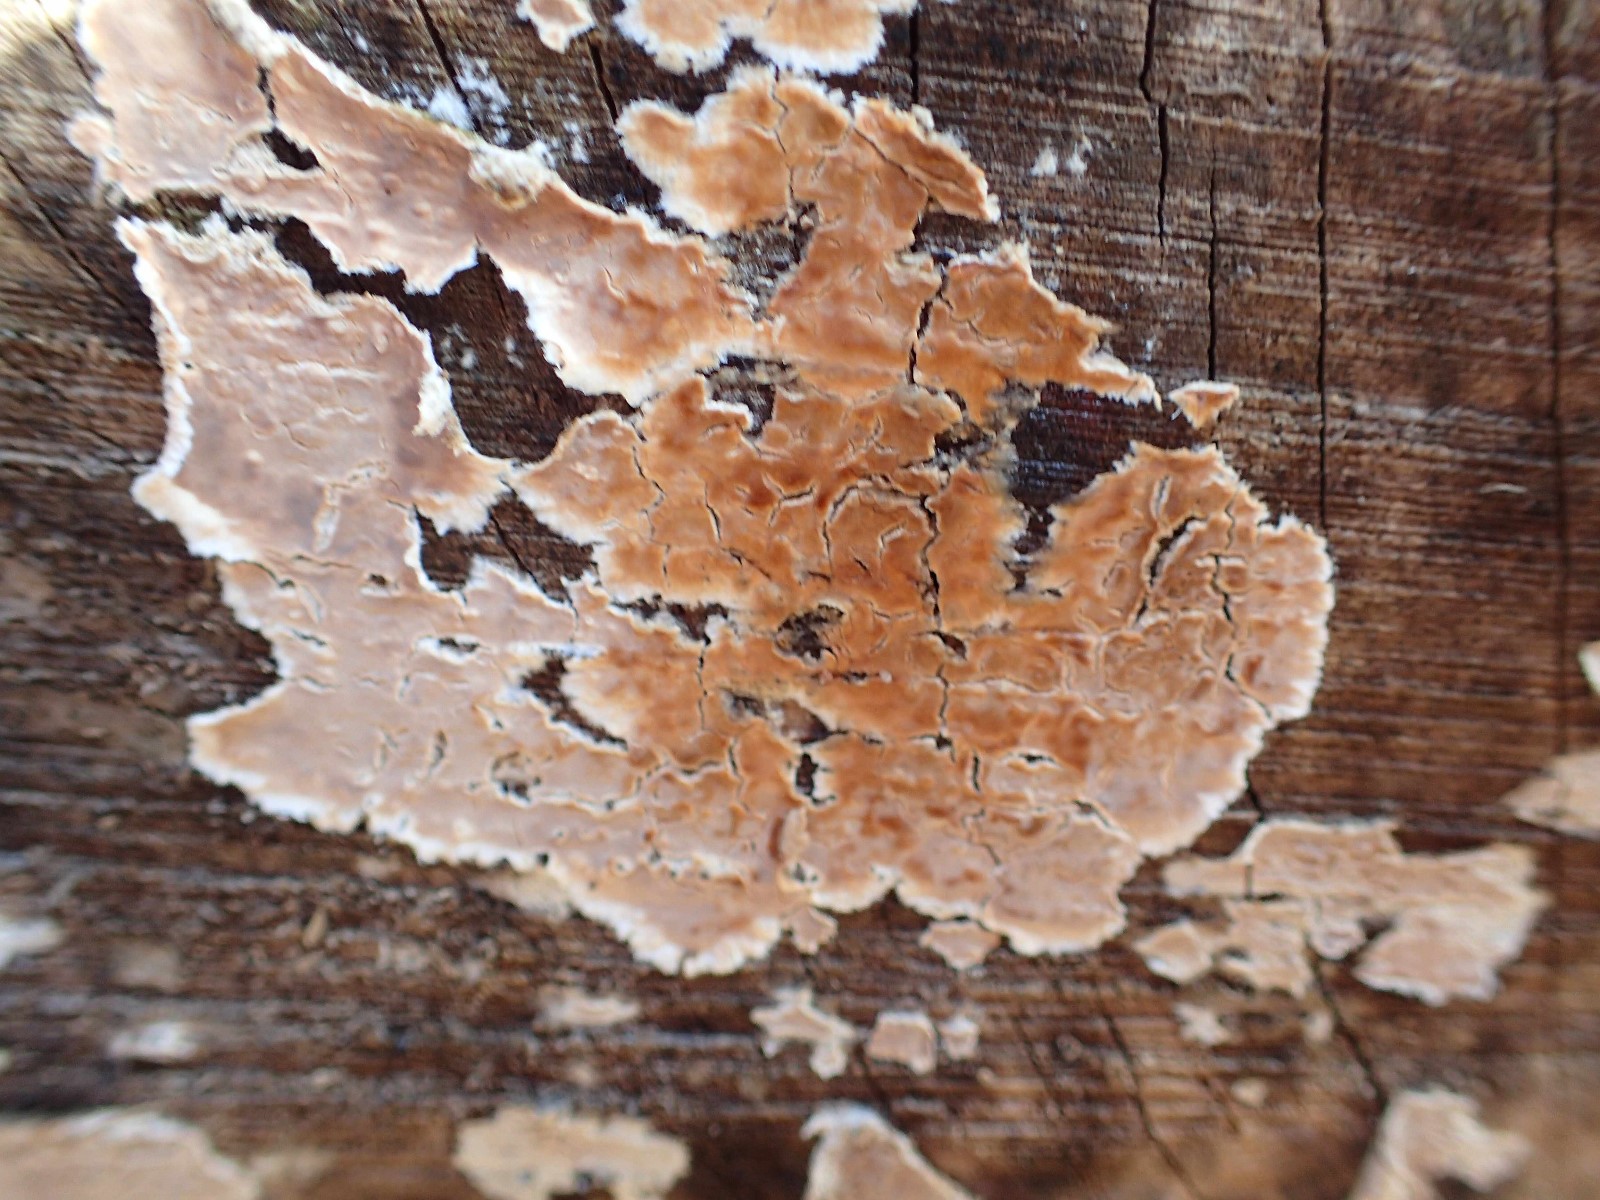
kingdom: Fungi
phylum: Basidiomycota
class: Agaricomycetes
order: Russulales
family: Stereaceae
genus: Stereum
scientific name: Stereum rugosum
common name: rynket lædersvamp
